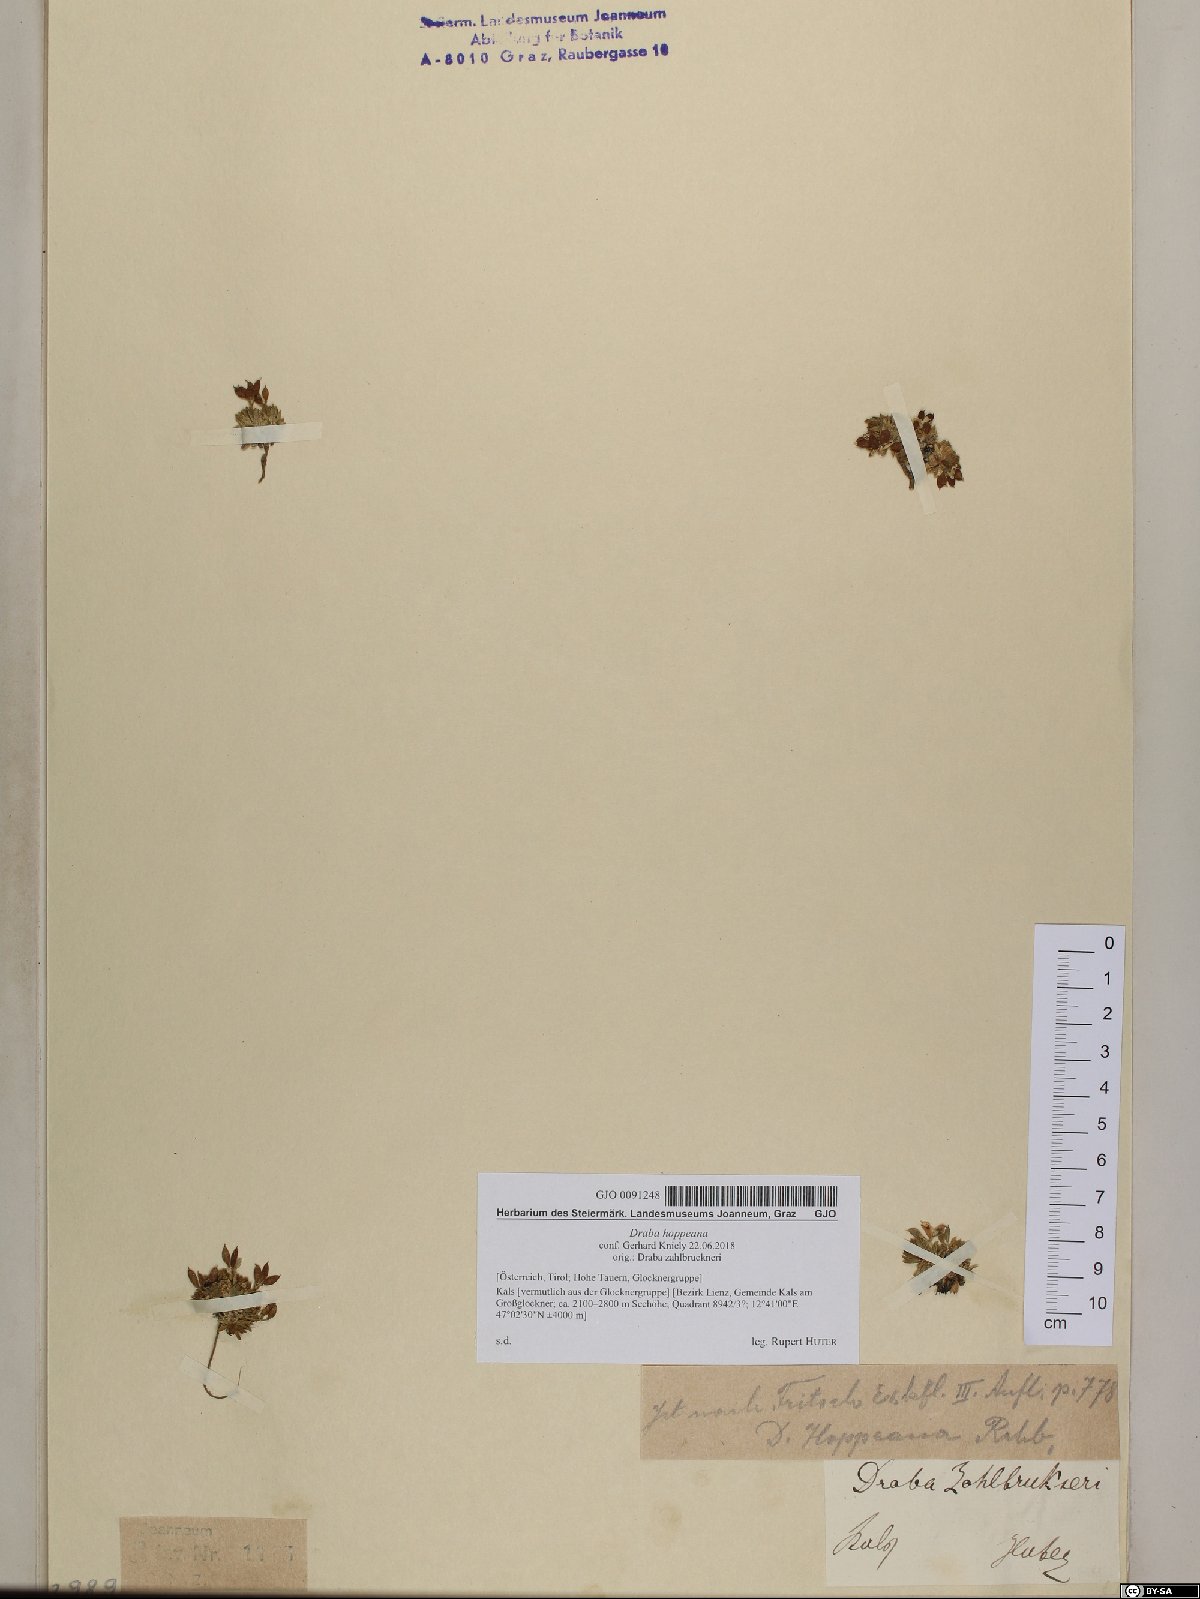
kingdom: Plantae
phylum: Tracheophyta
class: Magnoliopsida
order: Brassicales
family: Brassicaceae
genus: Draba
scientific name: Draba hoppeana
